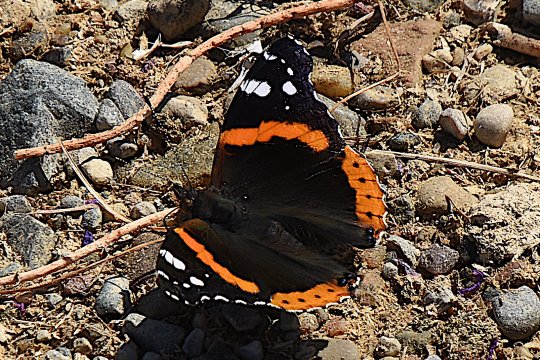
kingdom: Animalia
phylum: Arthropoda
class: Insecta
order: Lepidoptera
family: Nymphalidae
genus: Vanessa
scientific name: Vanessa atalanta
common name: Red Admiral
